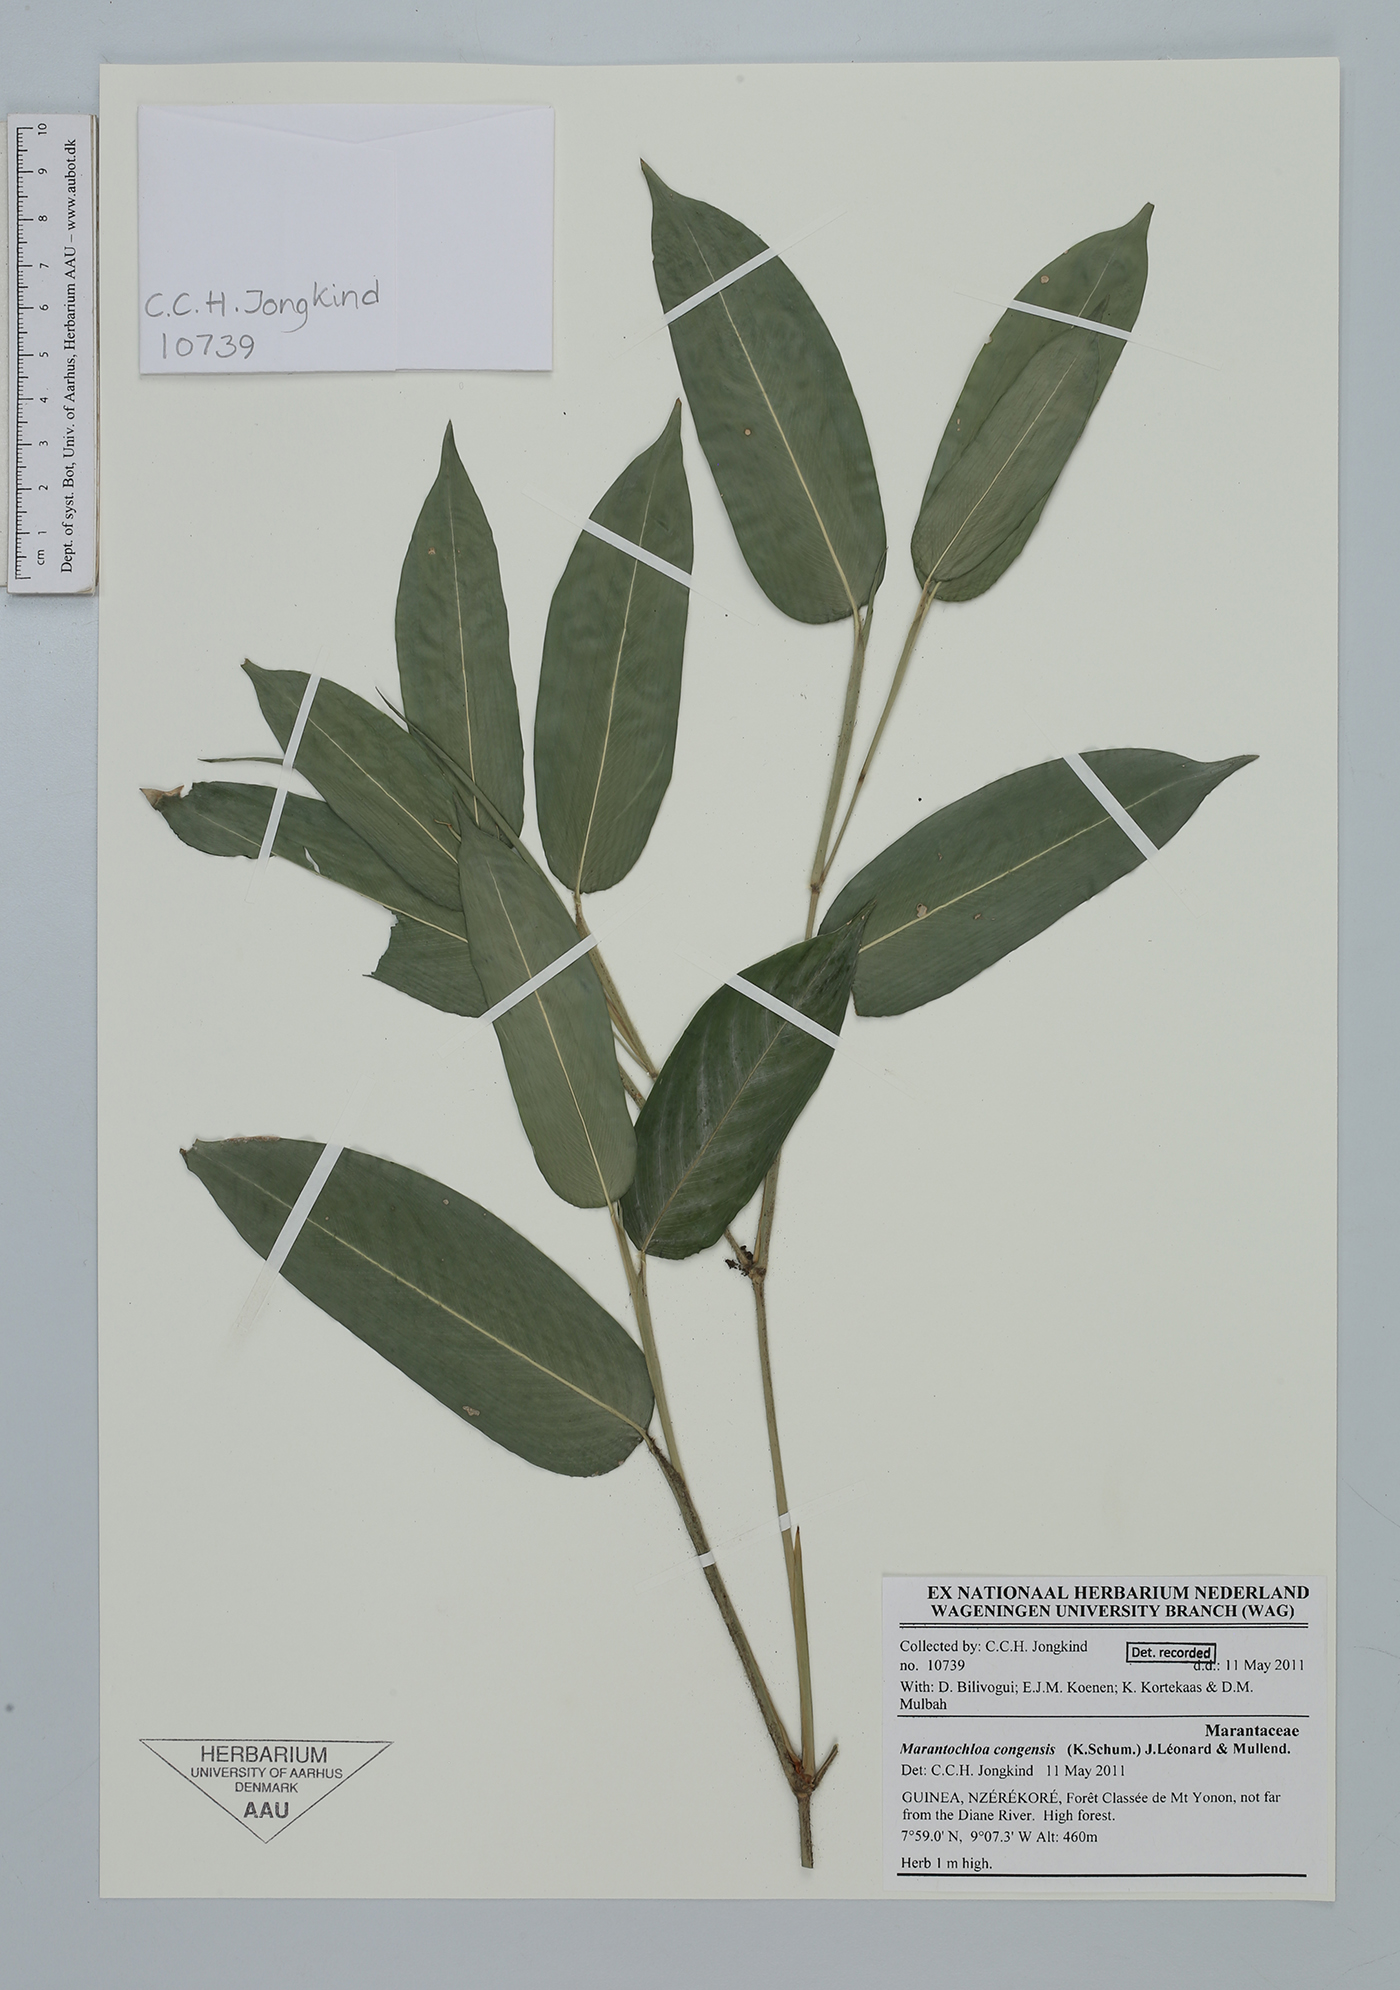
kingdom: Plantae
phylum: Tracheophyta
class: Liliopsida
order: Zingiberales
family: Marantaceae
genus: Marantochloa
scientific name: Marantochloa congensis
